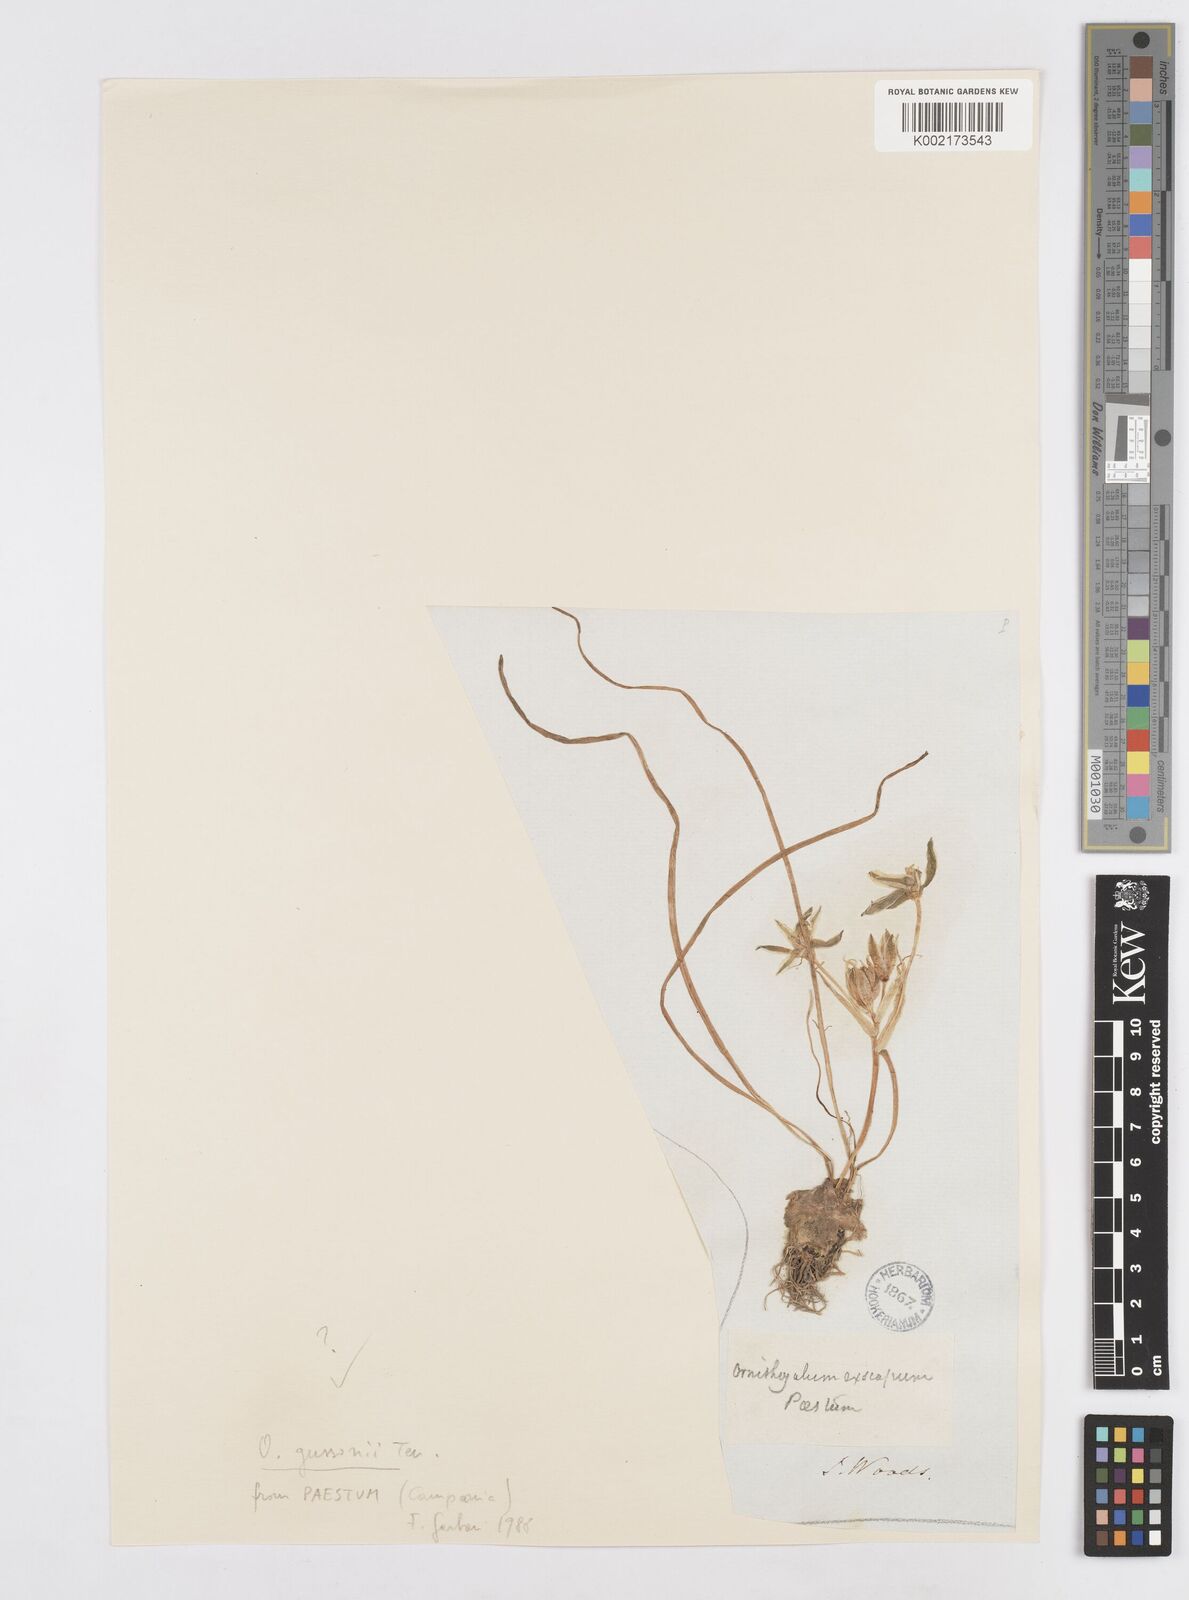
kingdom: Plantae
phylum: Tracheophyta
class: Liliopsida
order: Asparagales
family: Asparagaceae
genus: Ornithogalum
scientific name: Ornithogalum gussonei
